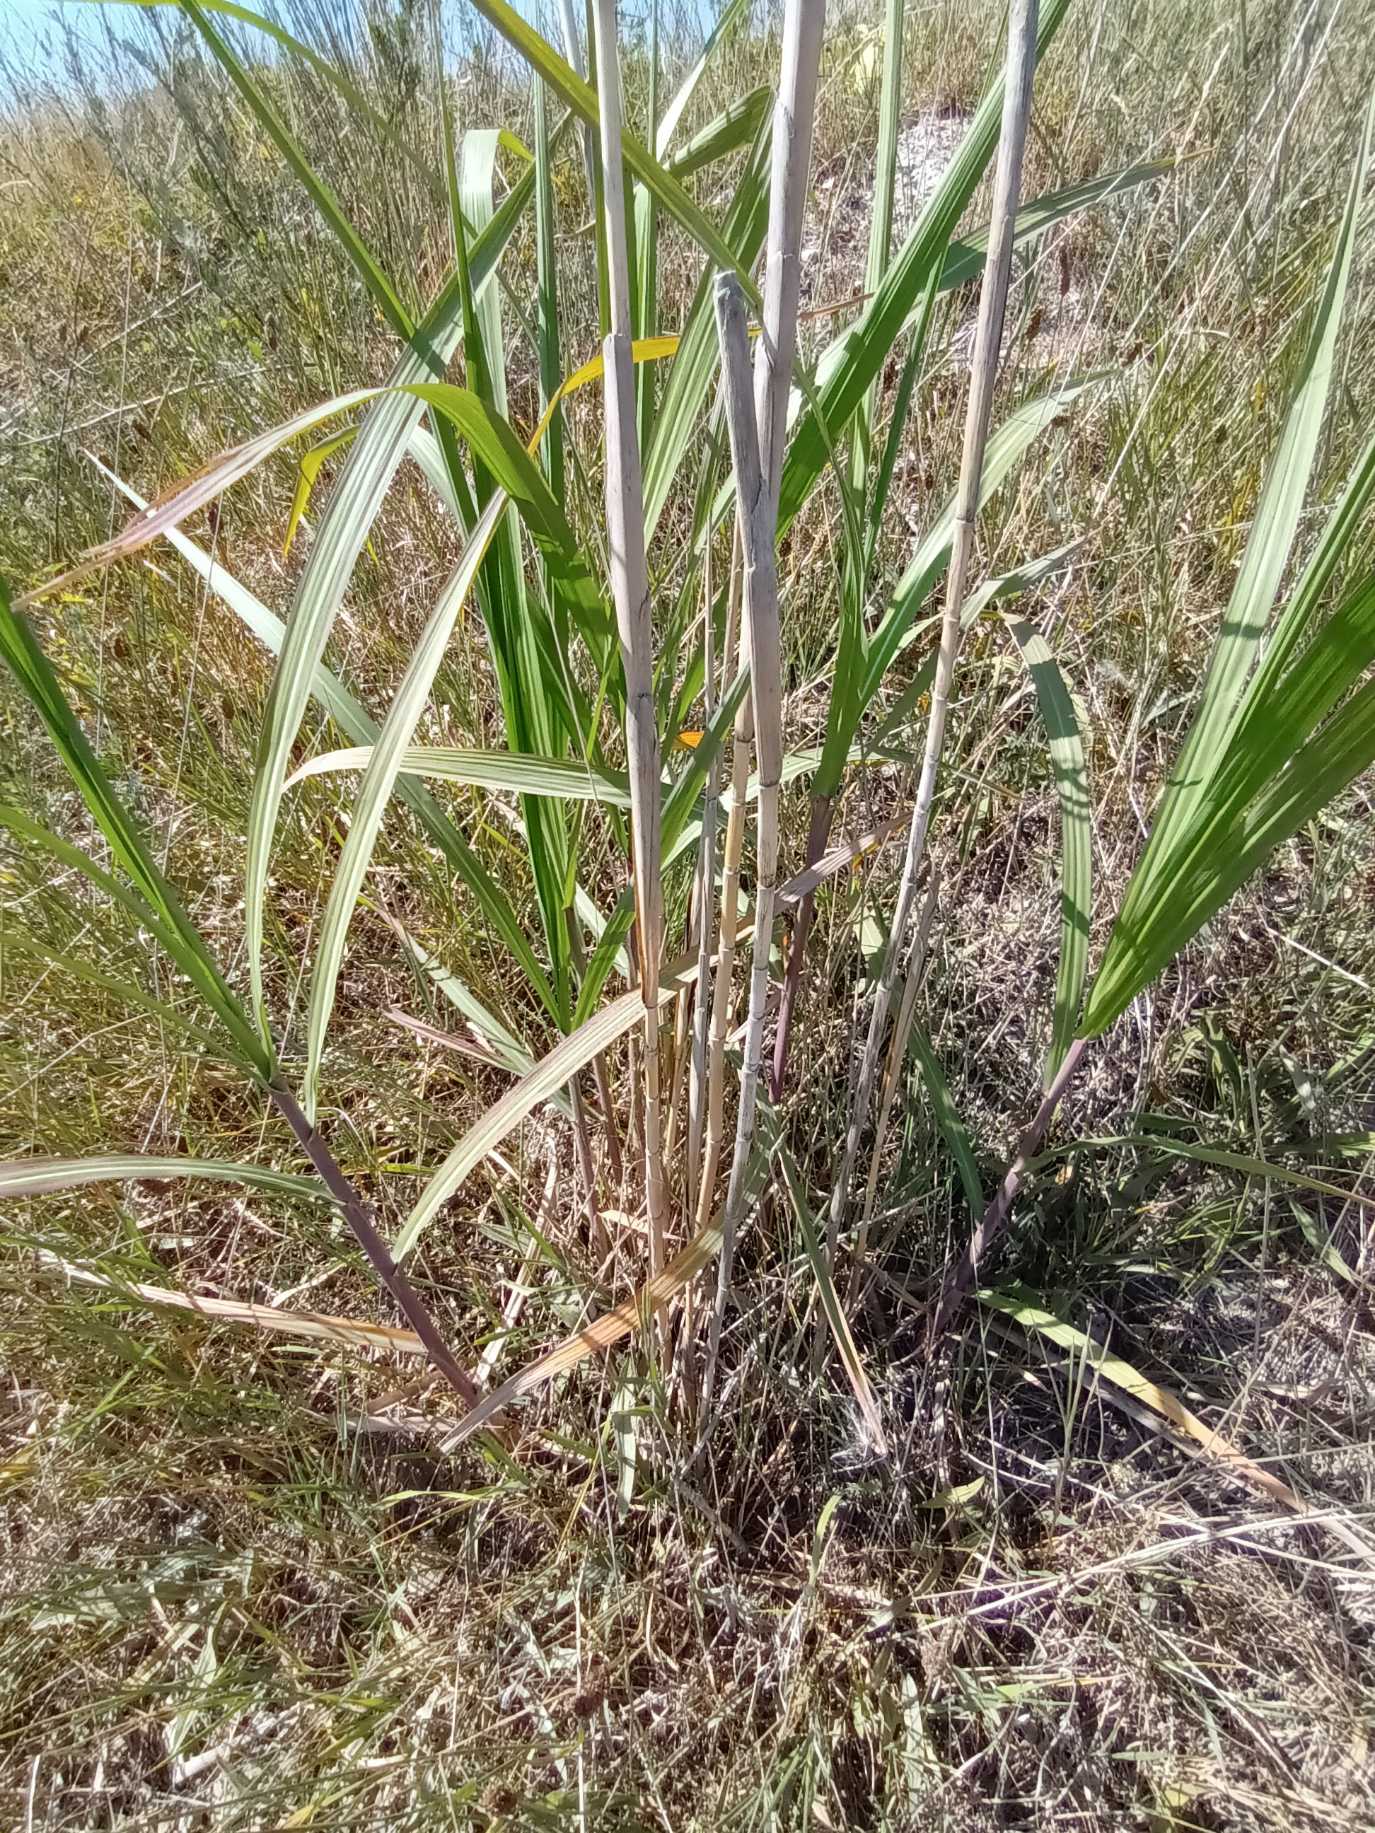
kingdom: Plantae
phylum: Tracheophyta
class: Liliopsida
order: Poales
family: Poaceae
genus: Miscanthus
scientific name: Miscanthus sinensis
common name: Elefantgræs
